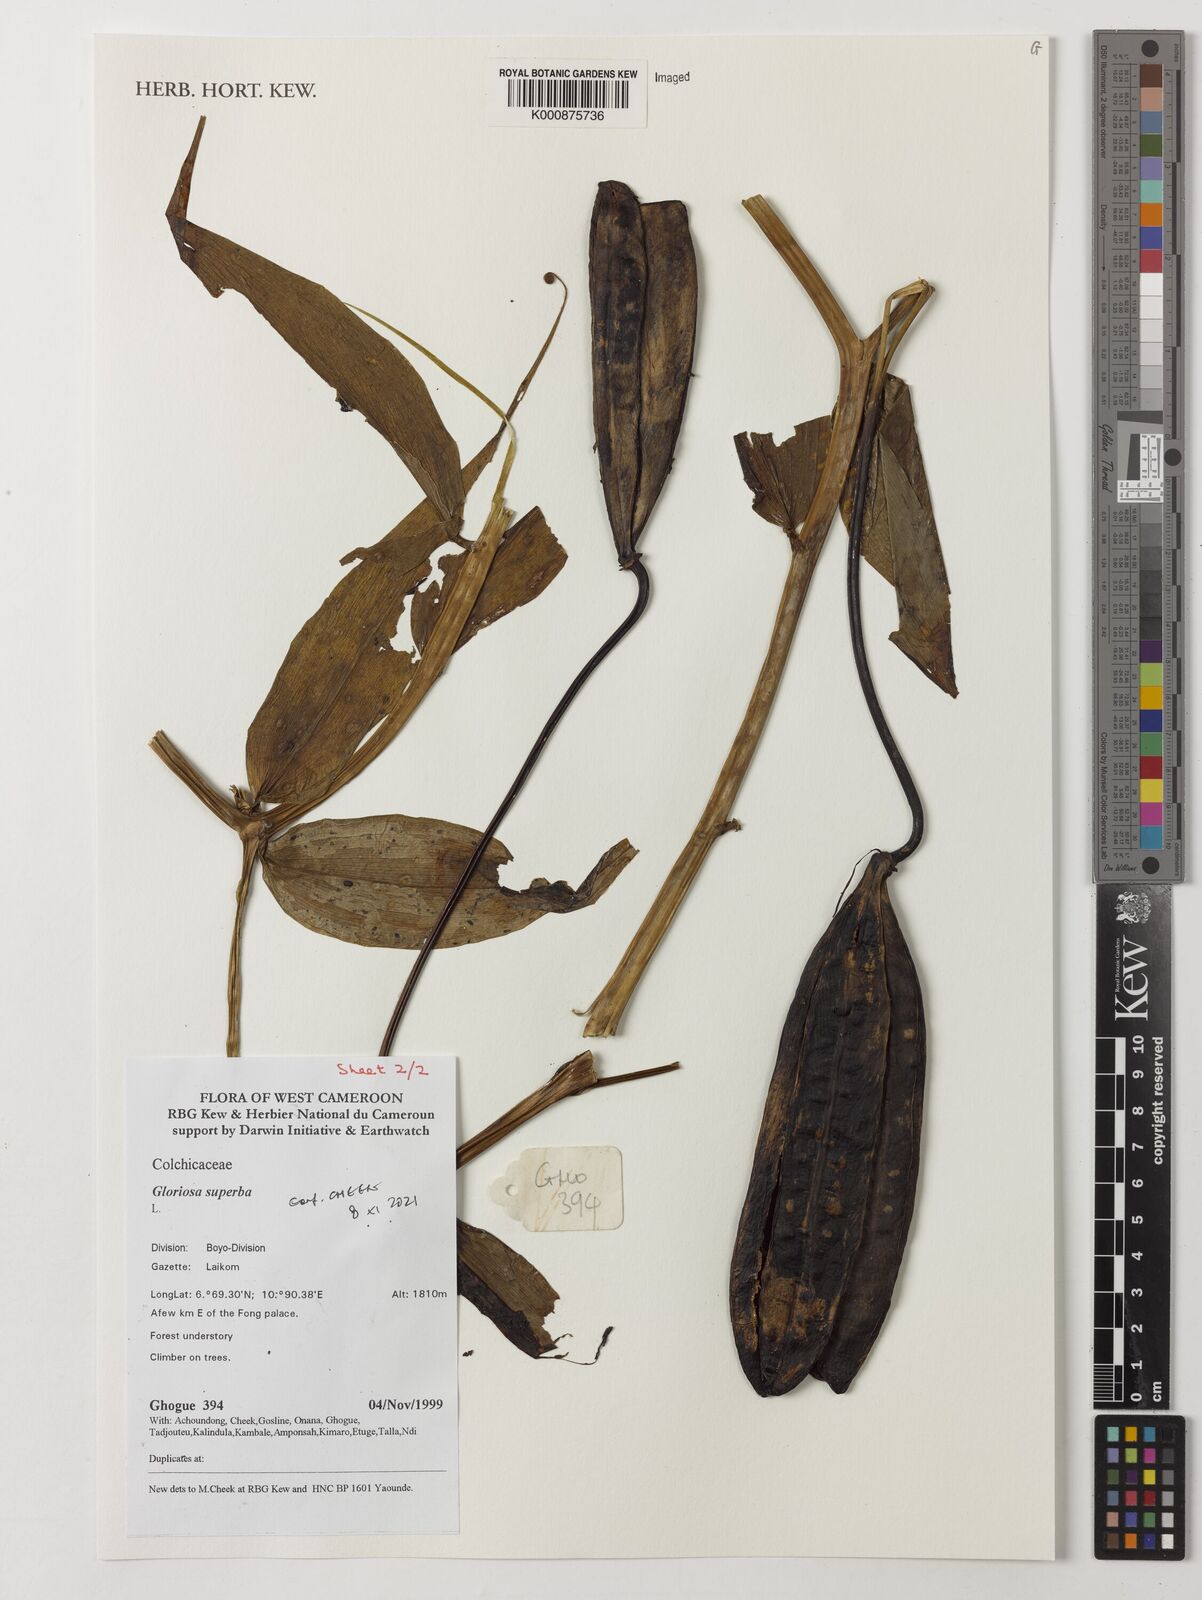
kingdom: Plantae
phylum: Tracheophyta
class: Liliopsida
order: Liliales
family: Colchicaceae
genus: Gloriosa
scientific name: Gloriosa superba
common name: Flame lily
